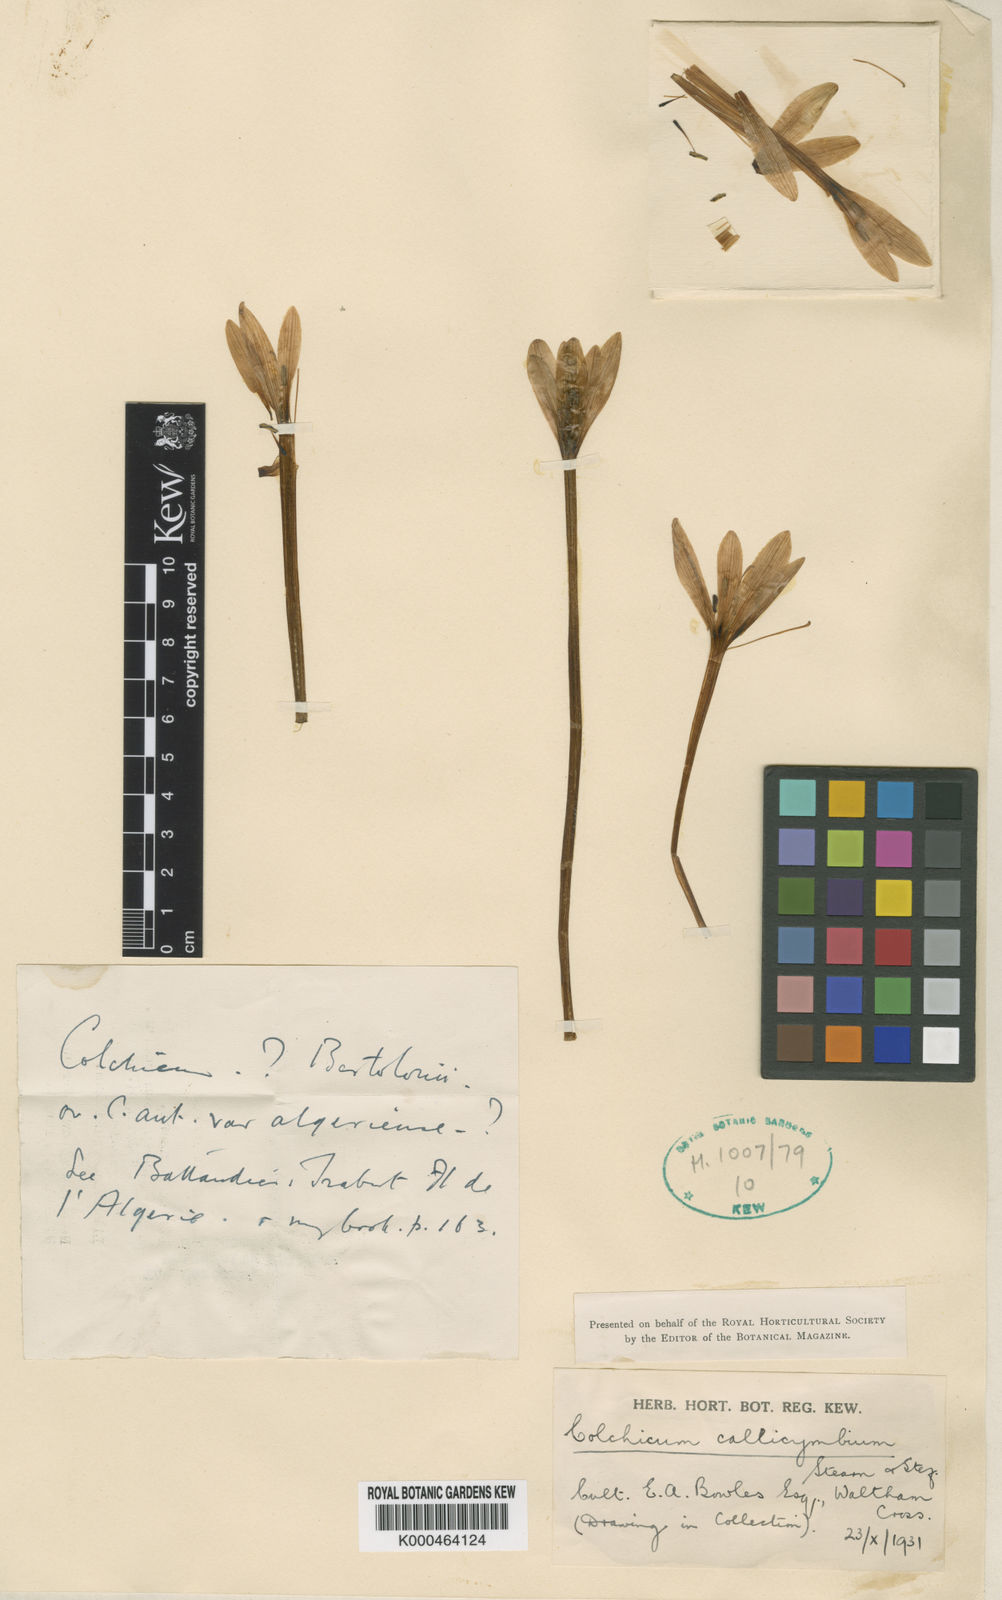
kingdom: Plantae
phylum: Tracheophyta
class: Liliopsida
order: Liliales
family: Colchicaceae
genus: Colchicum
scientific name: Colchicum haynaldii
